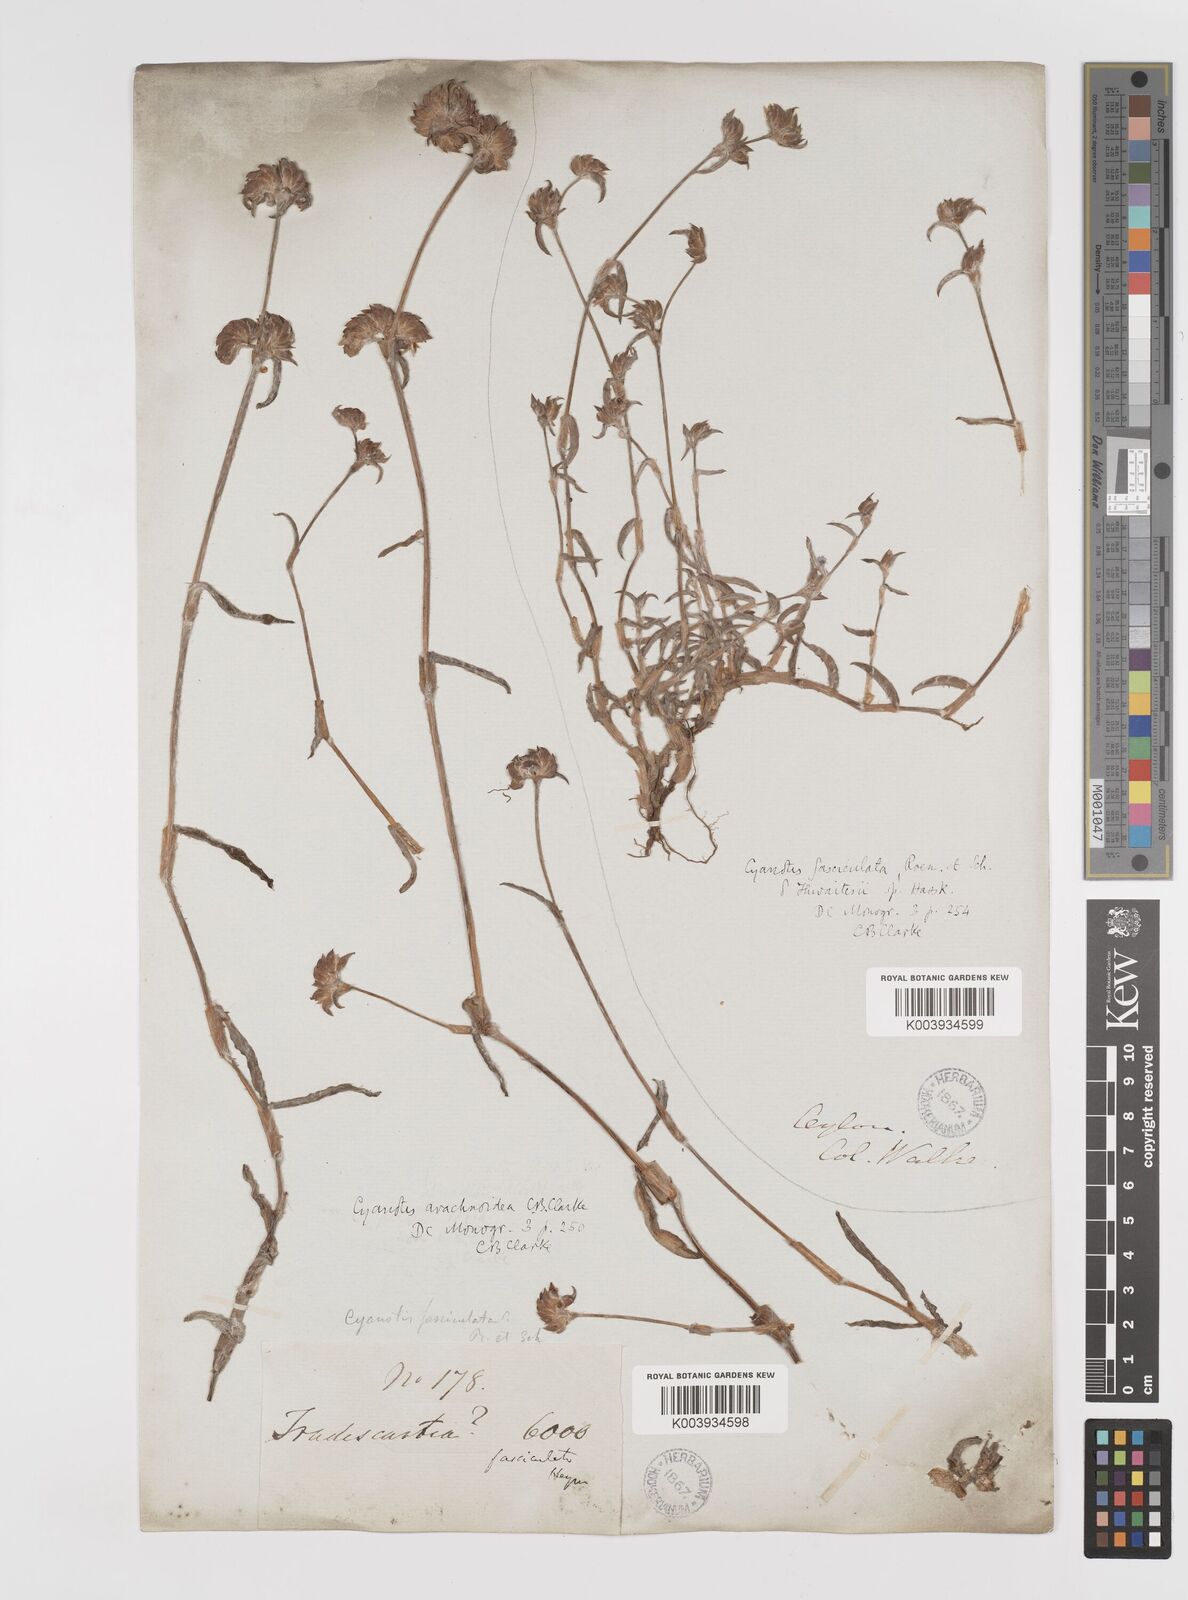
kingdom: Plantae
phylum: Tracheophyta
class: Liliopsida
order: Commelinales
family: Commelinaceae
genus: Cyanotis
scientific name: Cyanotis arachnoidea
